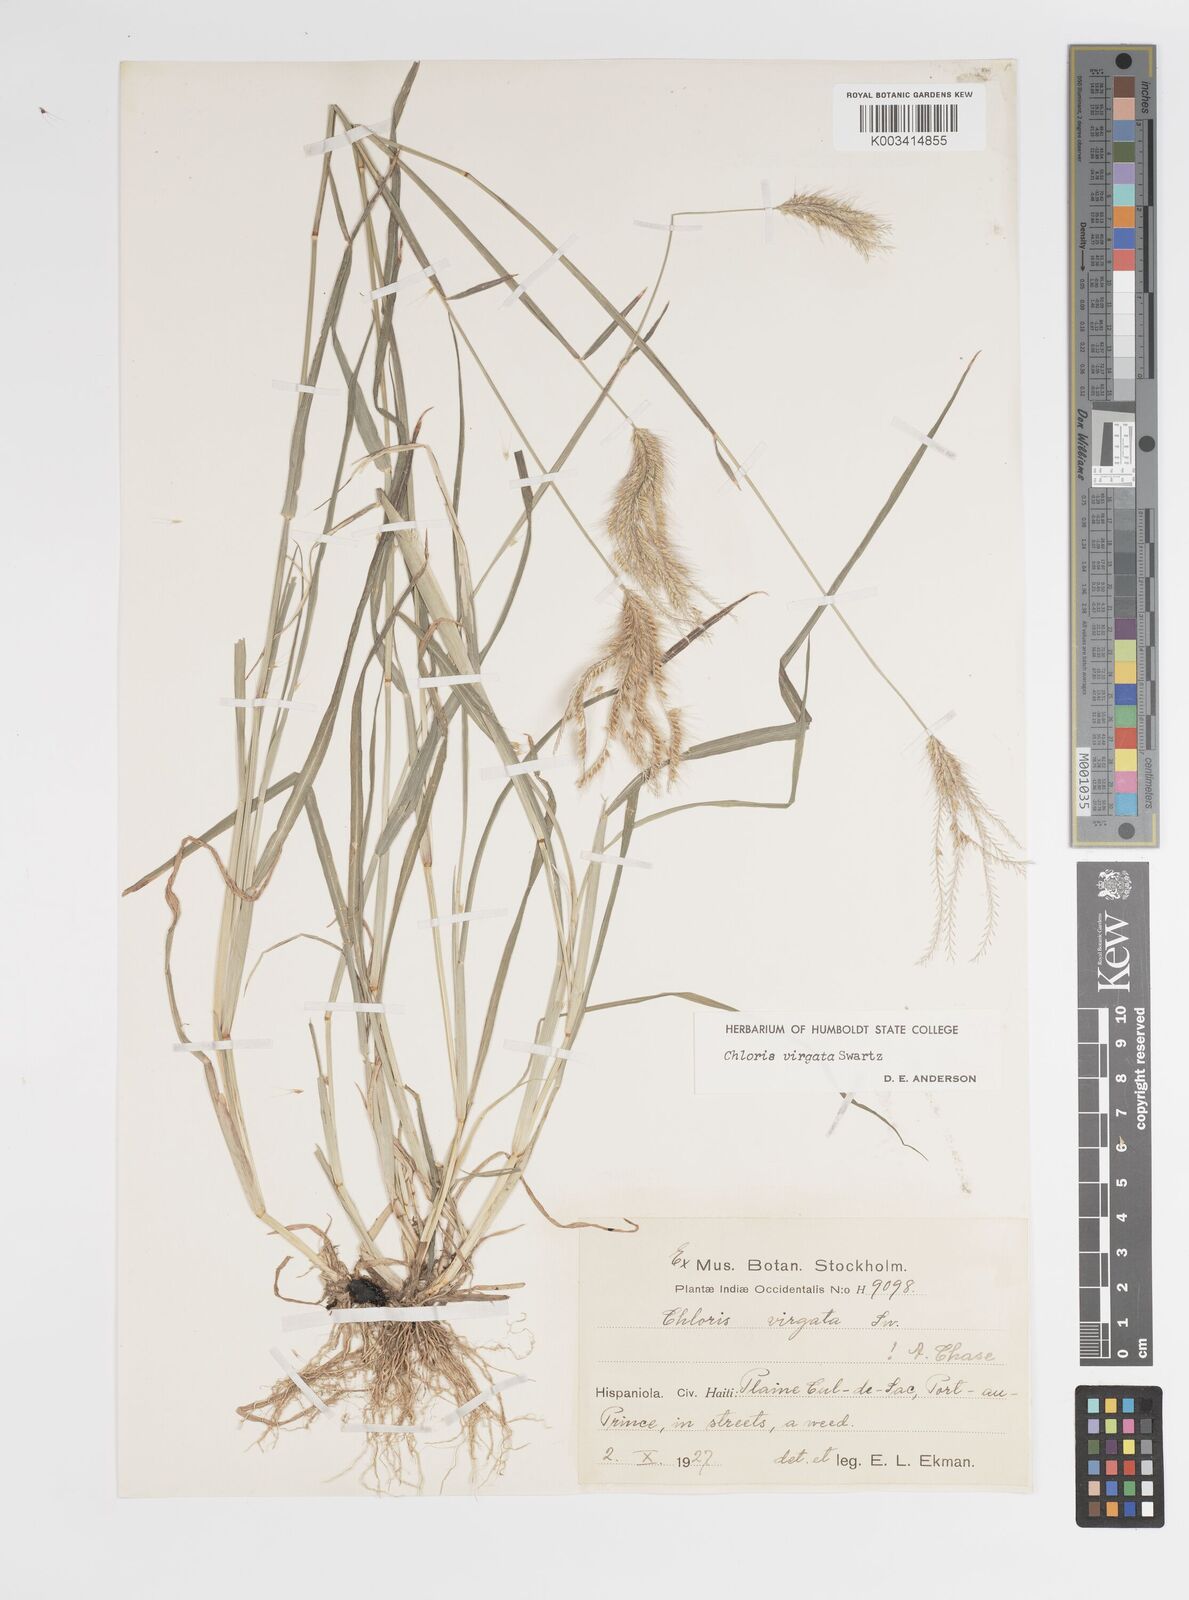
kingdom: Plantae
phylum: Tracheophyta
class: Liliopsida
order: Poales
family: Poaceae
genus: Chloris
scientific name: Chloris virgata
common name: Feathery rhodes-grass
